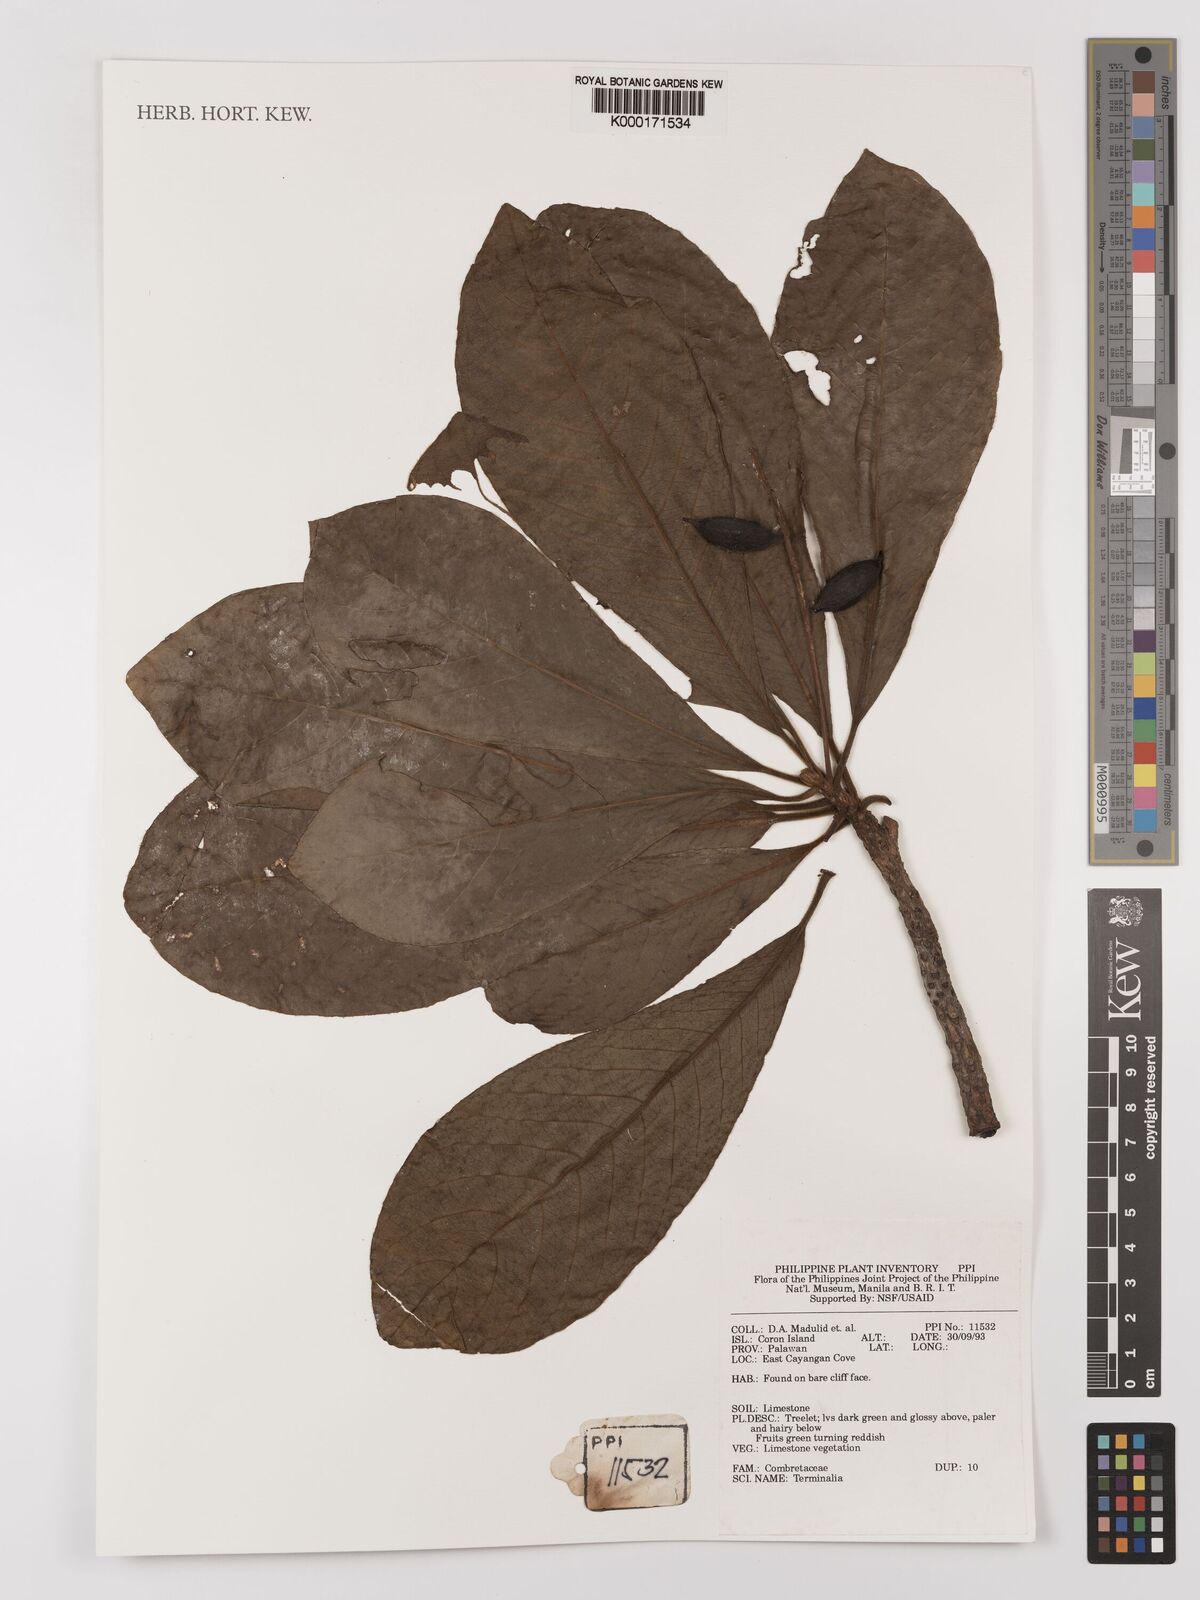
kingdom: Plantae
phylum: Tracheophyta
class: Magnoliopsida
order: Myrtales
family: Combretaceae
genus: Terminalia
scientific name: Terminalia
